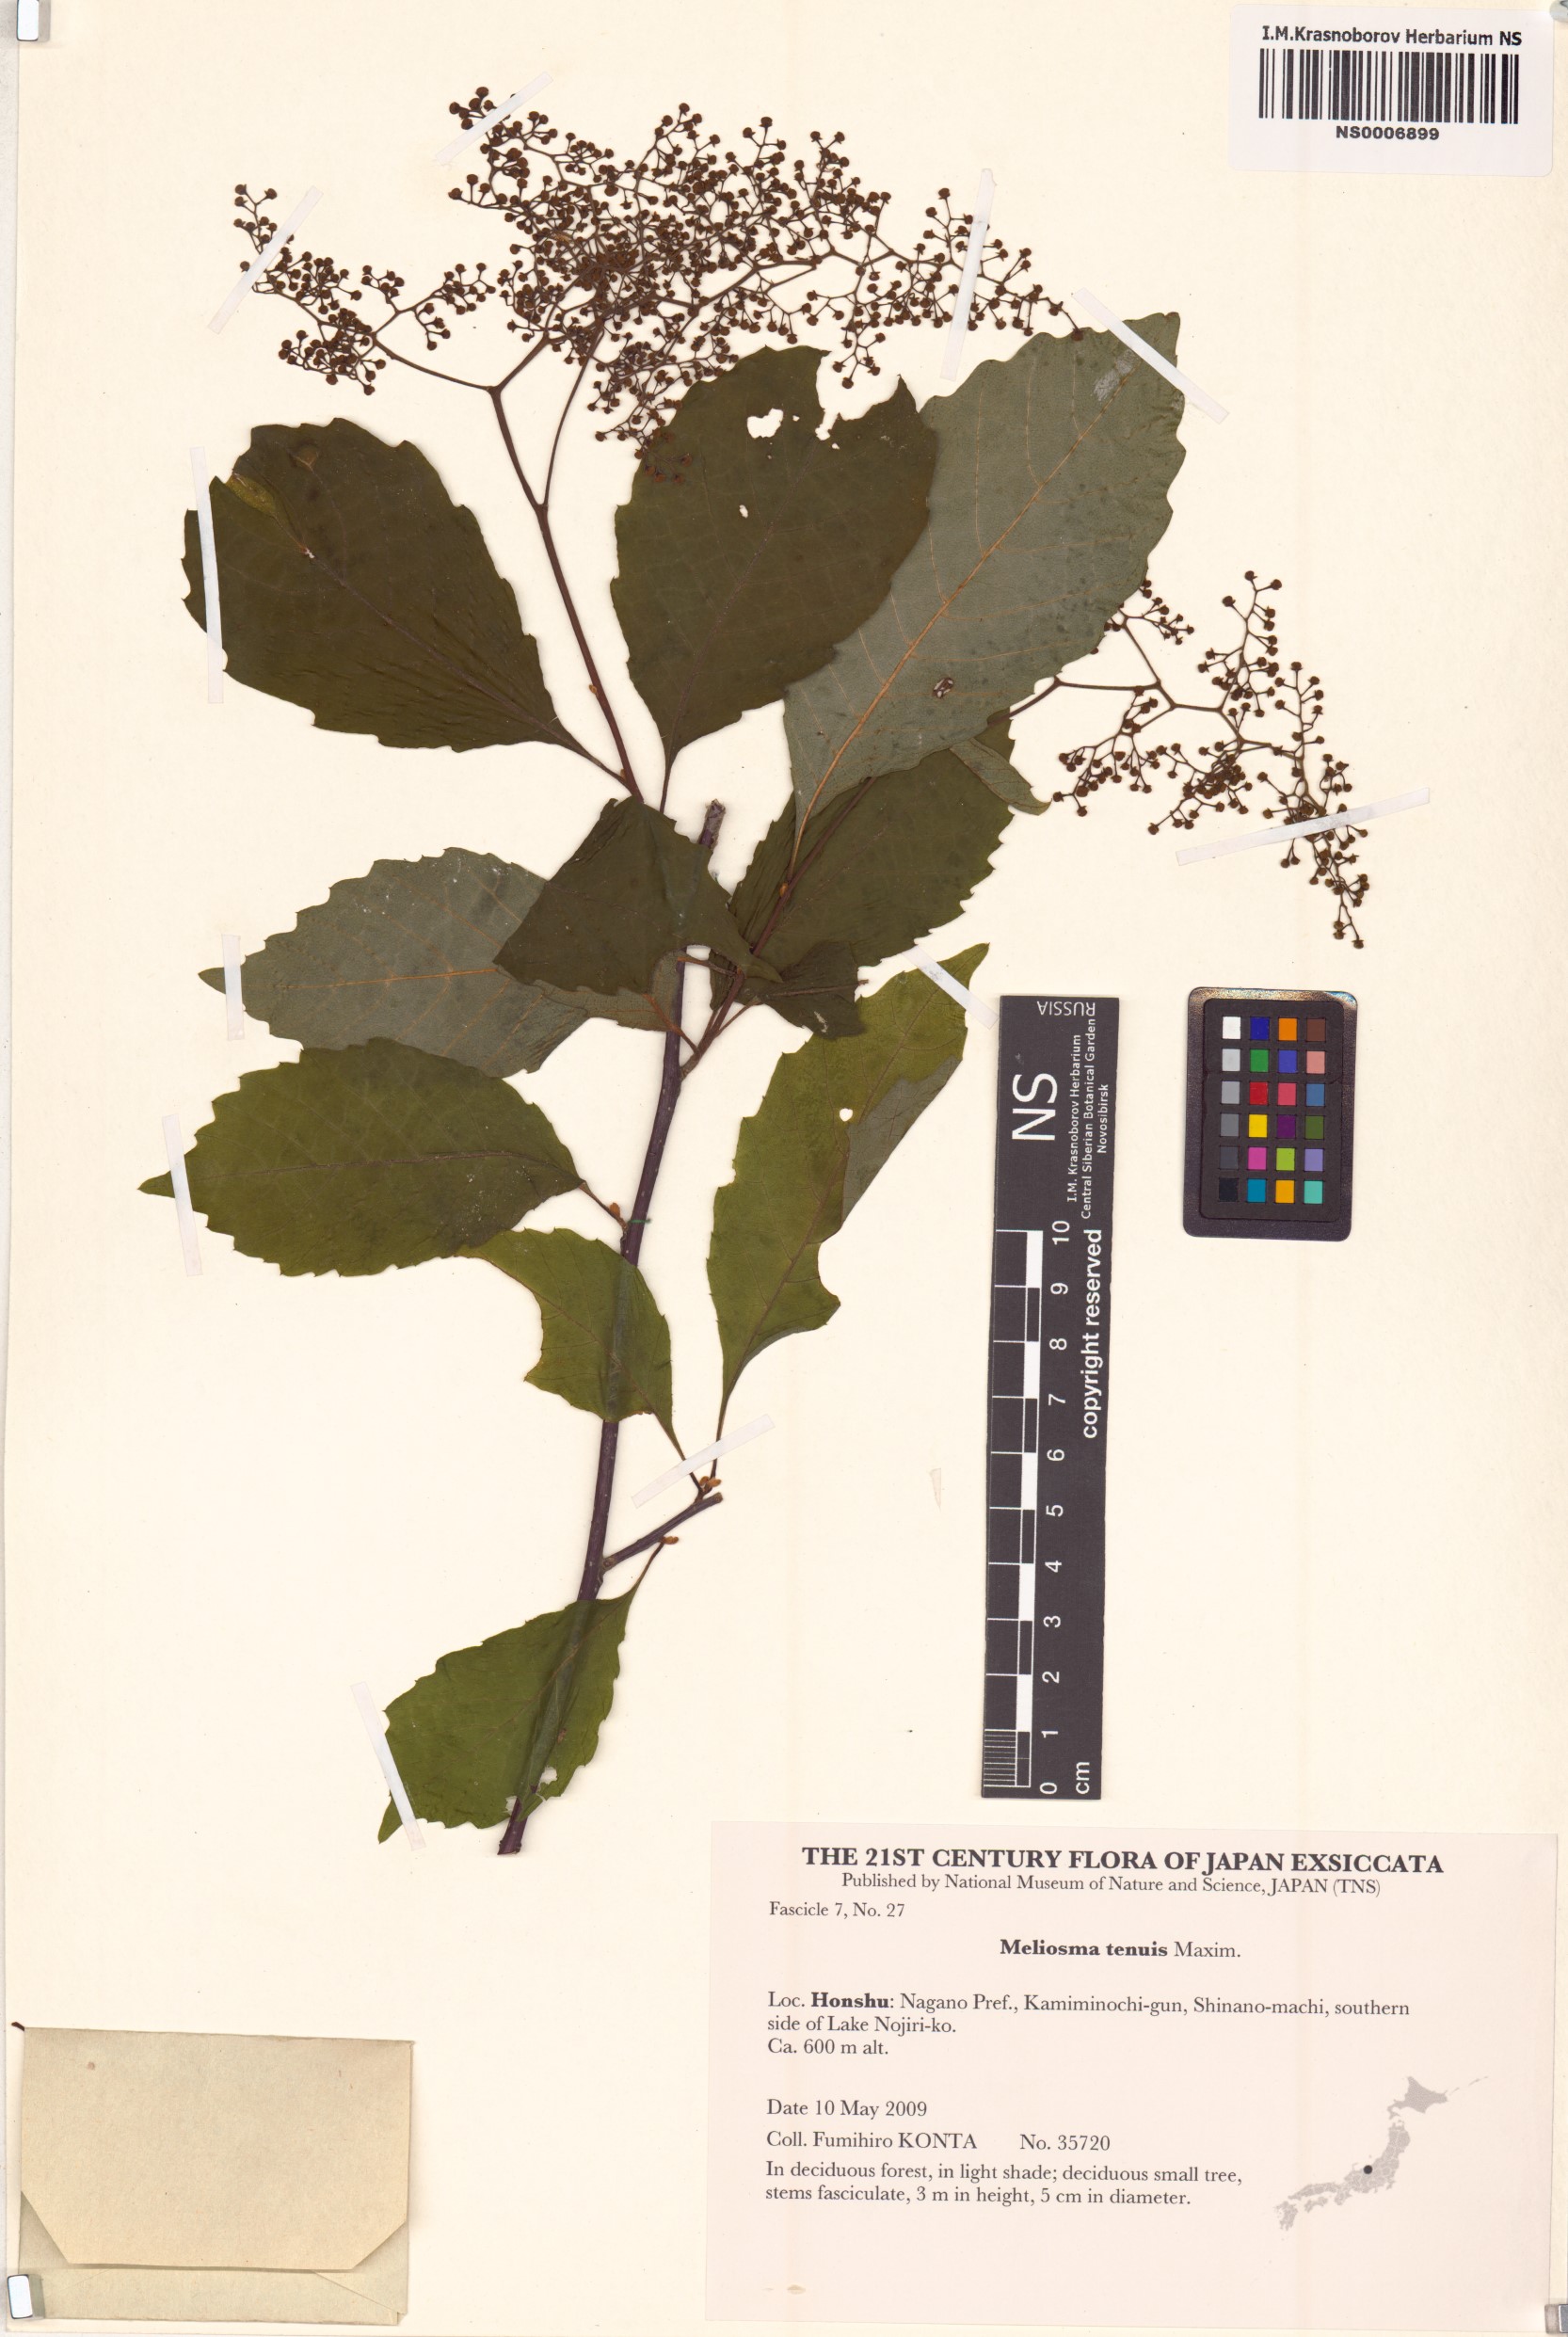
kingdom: Plantae
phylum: Tracheophyta
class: Magnoliopsida
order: Proteales
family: Sabiaceae
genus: Meliosma
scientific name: Meliosma tenuis
